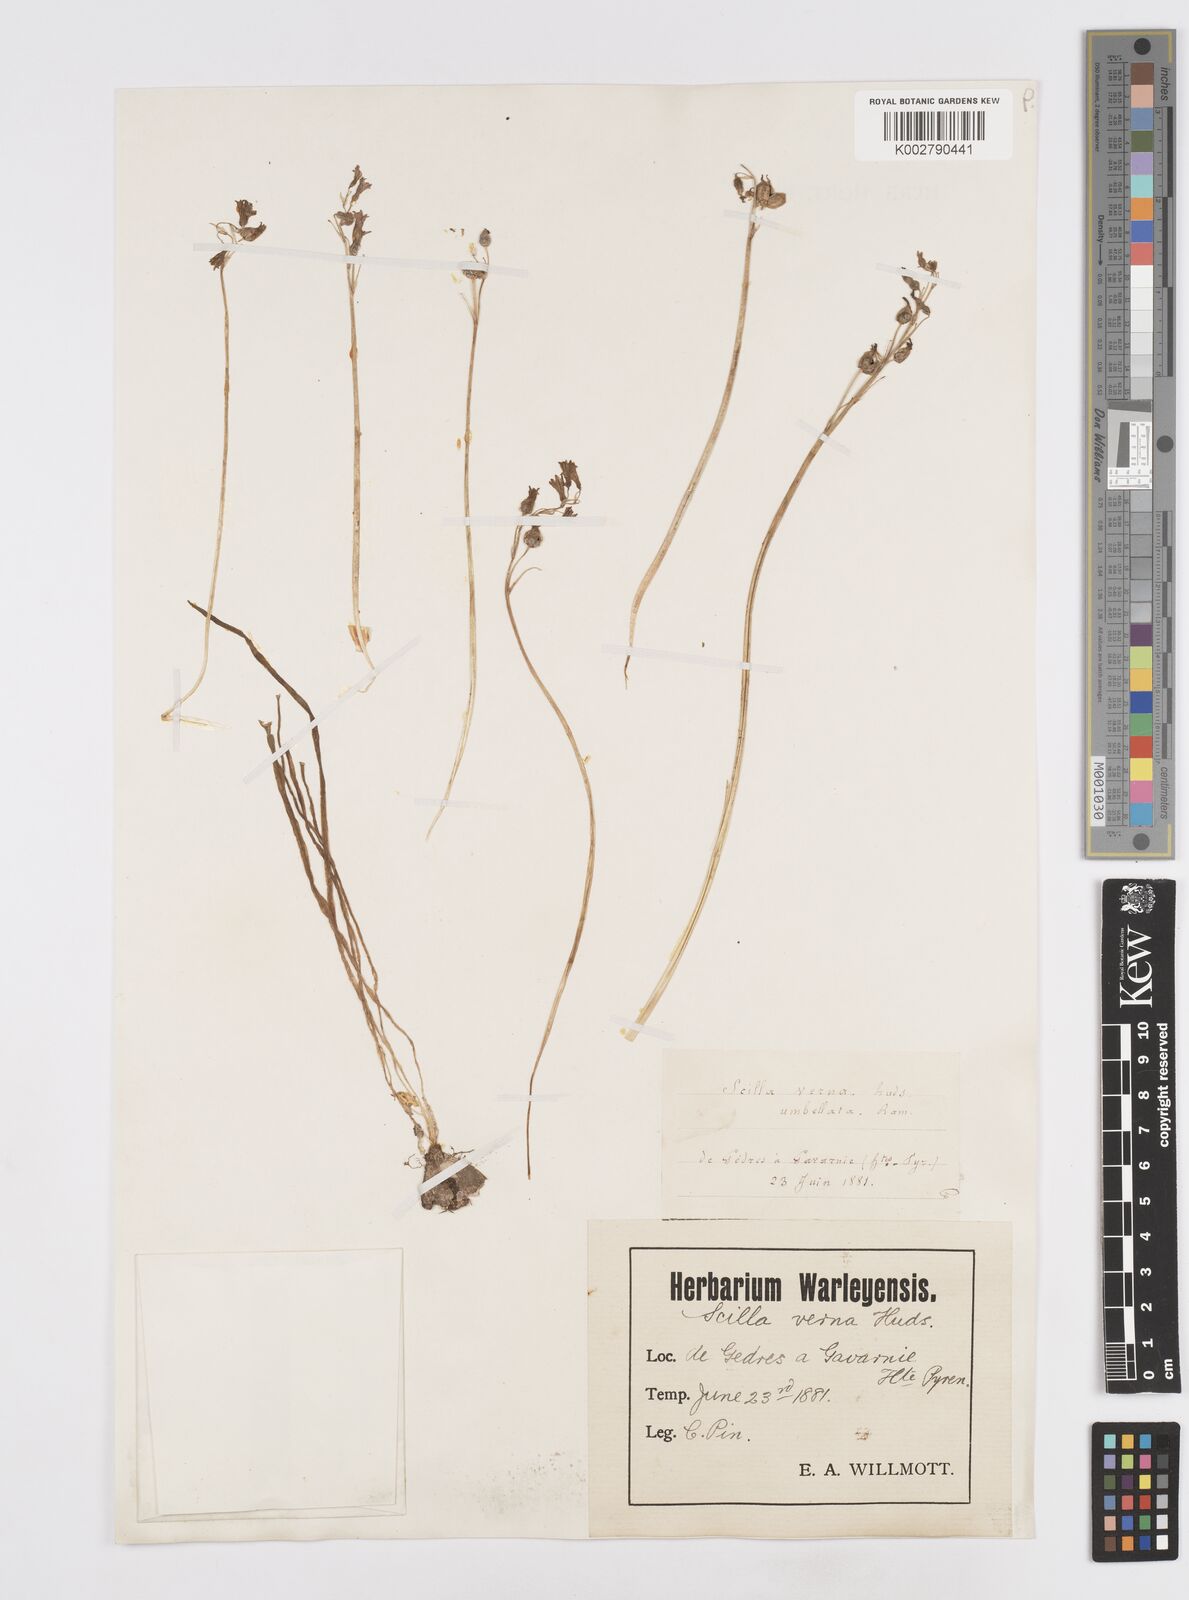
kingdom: Plantae
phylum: Tracheophyta
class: Liliopsida
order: Asparagales
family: Asparagaceae
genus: Scilla
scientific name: Scilla verna
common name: Spring squill
